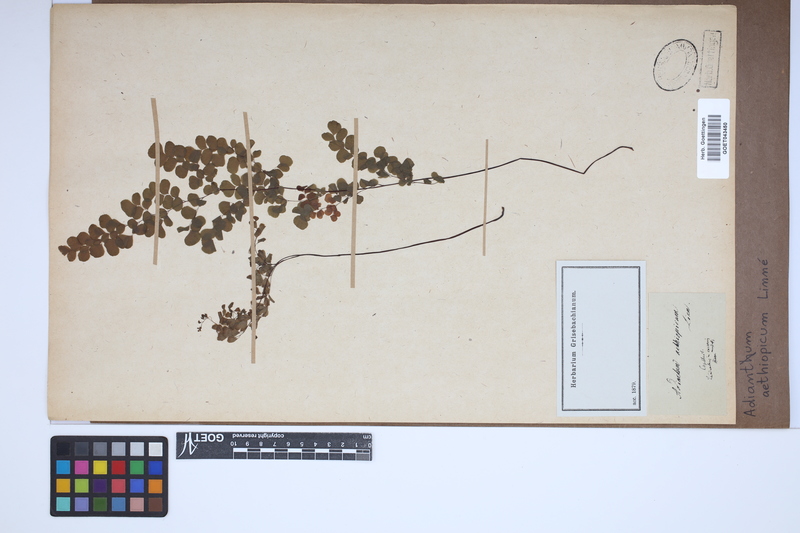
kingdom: Plantae
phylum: Tracheophyta
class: Polypodiopsida
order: Polypodiales
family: Pteridaceae
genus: Adiantum
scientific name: Adiantum aethiopicum
